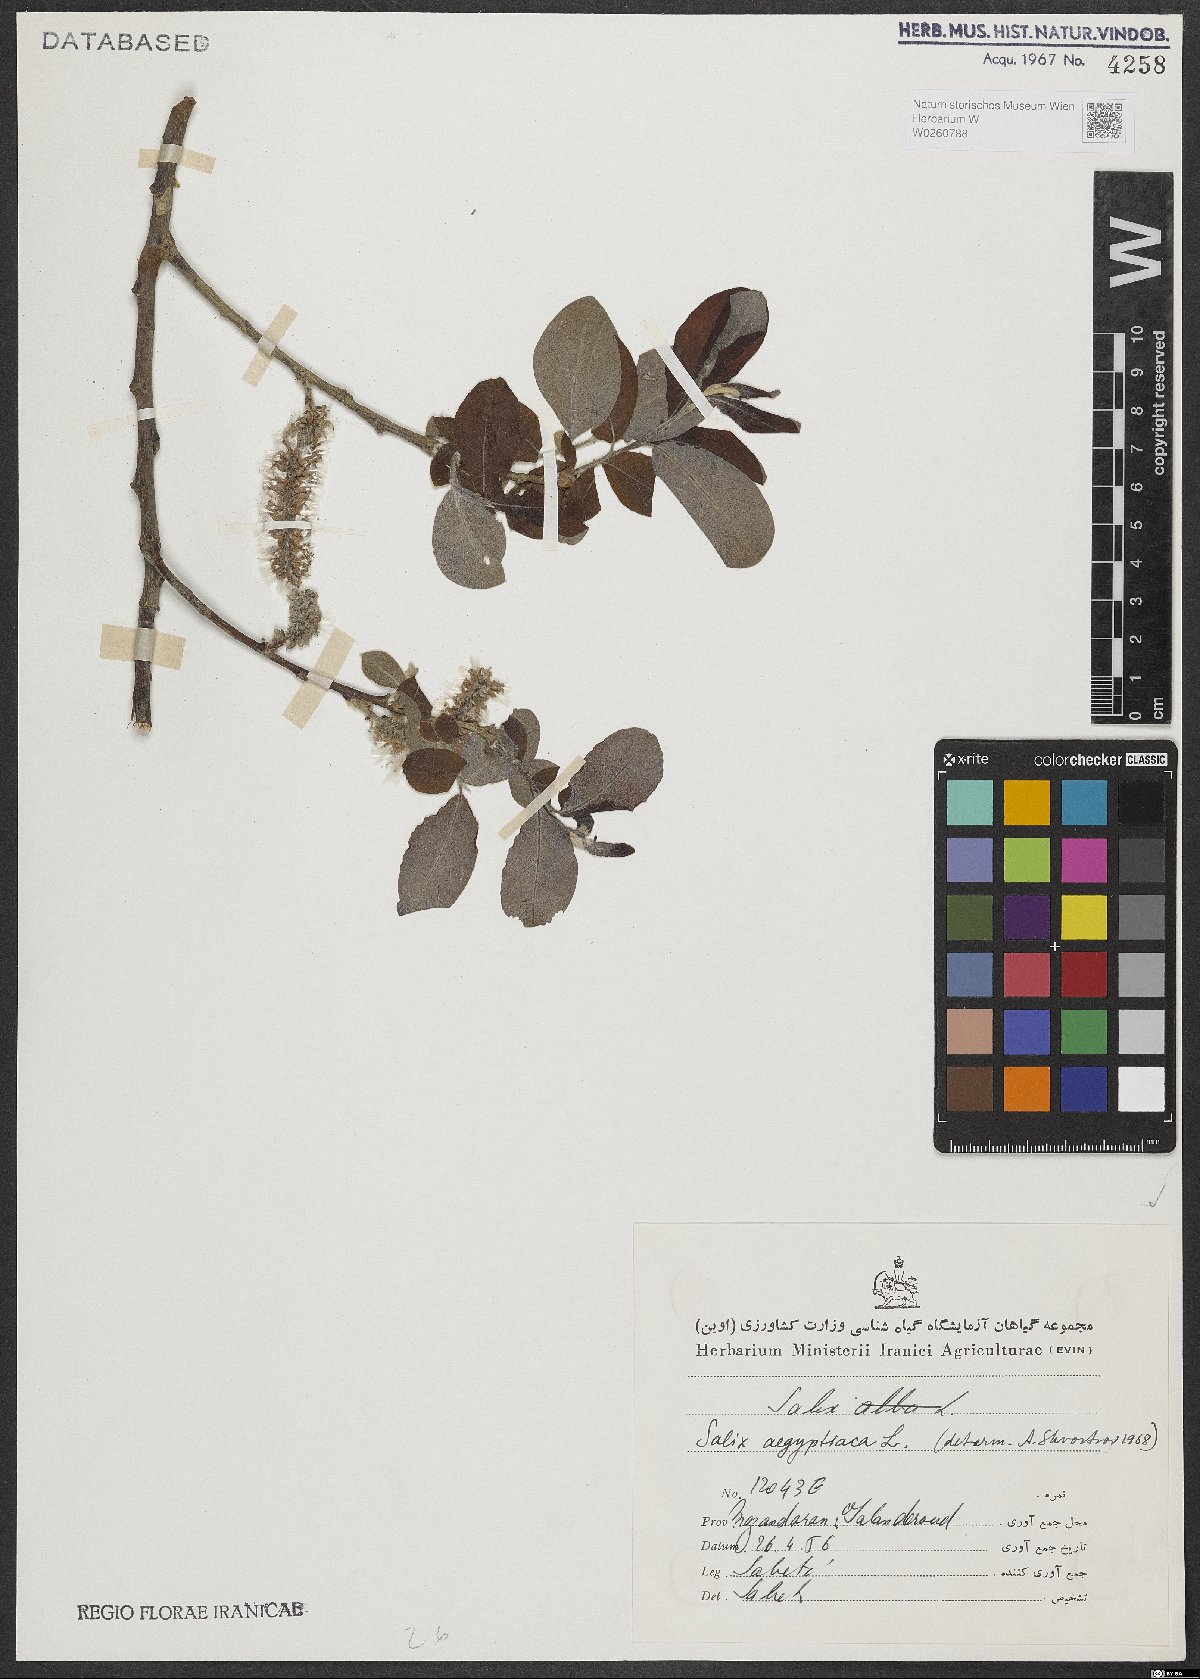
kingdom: Plantae
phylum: Tracheophyta
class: Magnoliopsida
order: Malpighiales
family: Salicaceae
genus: Salix
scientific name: Salix aegyptiaca
